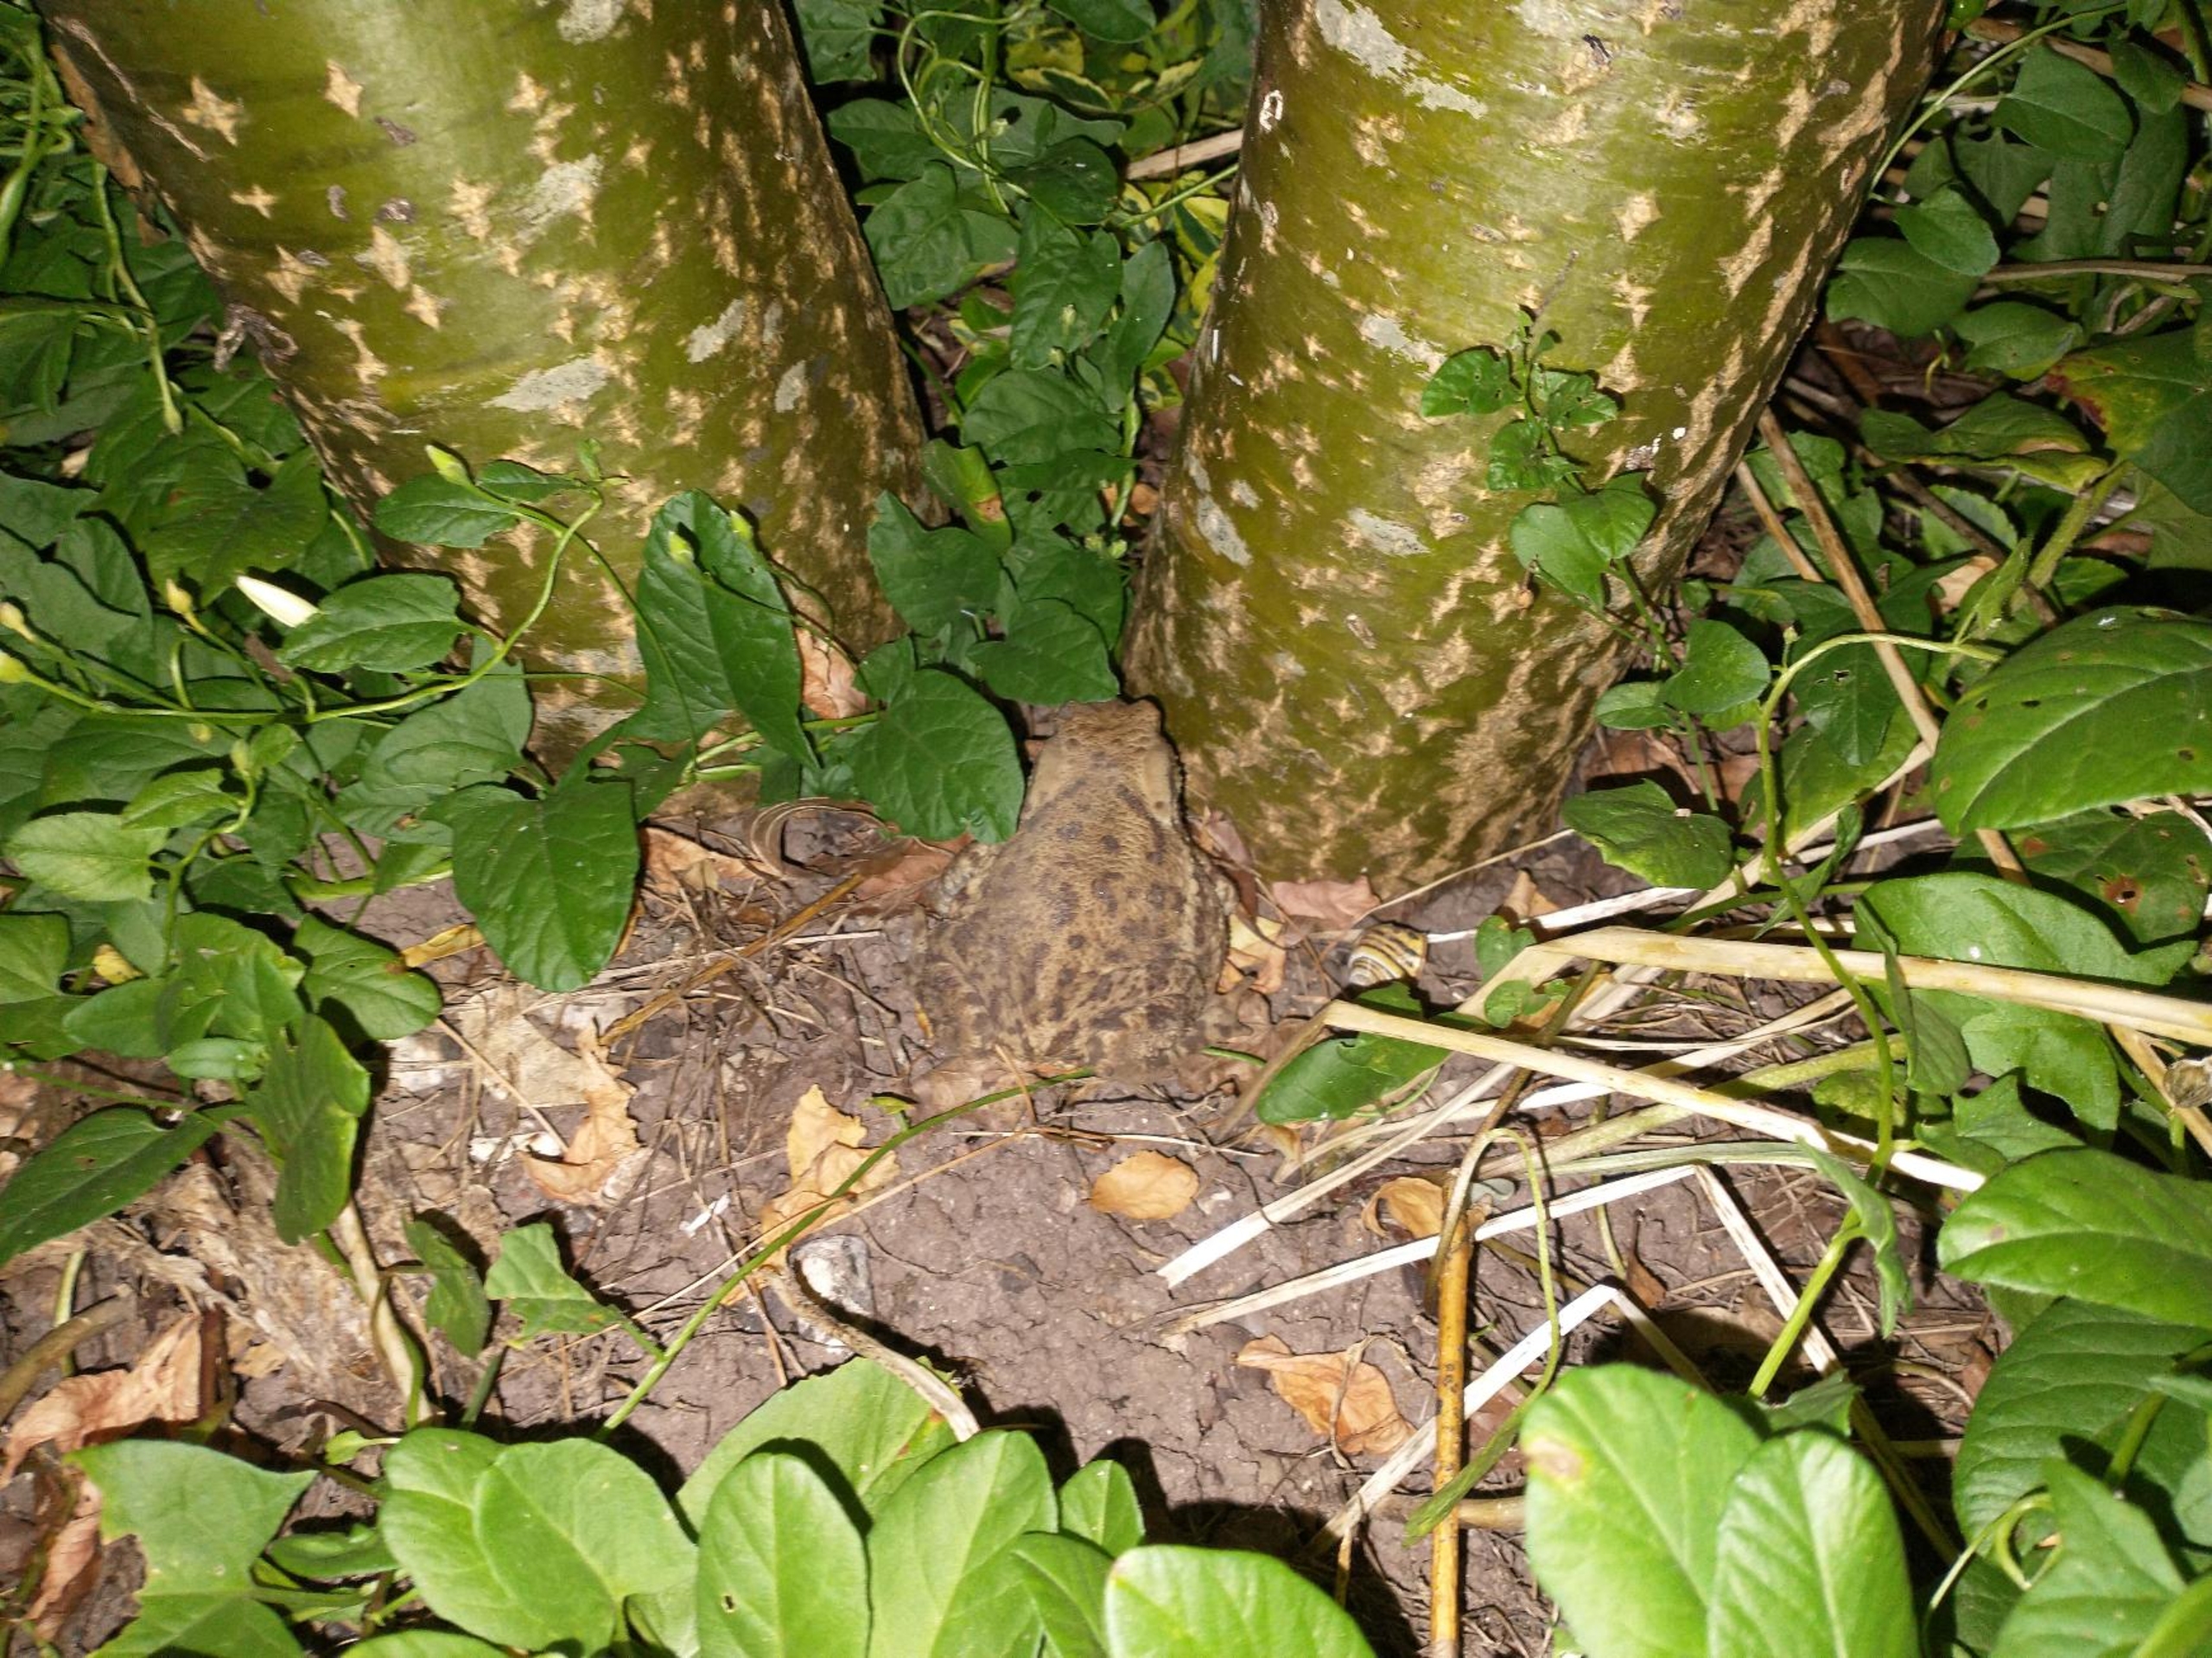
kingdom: Animalia
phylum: Chordata
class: Amphibia
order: Anura
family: Bufonidae
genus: Bufo
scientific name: Bufo bufo
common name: Skrubtudse
